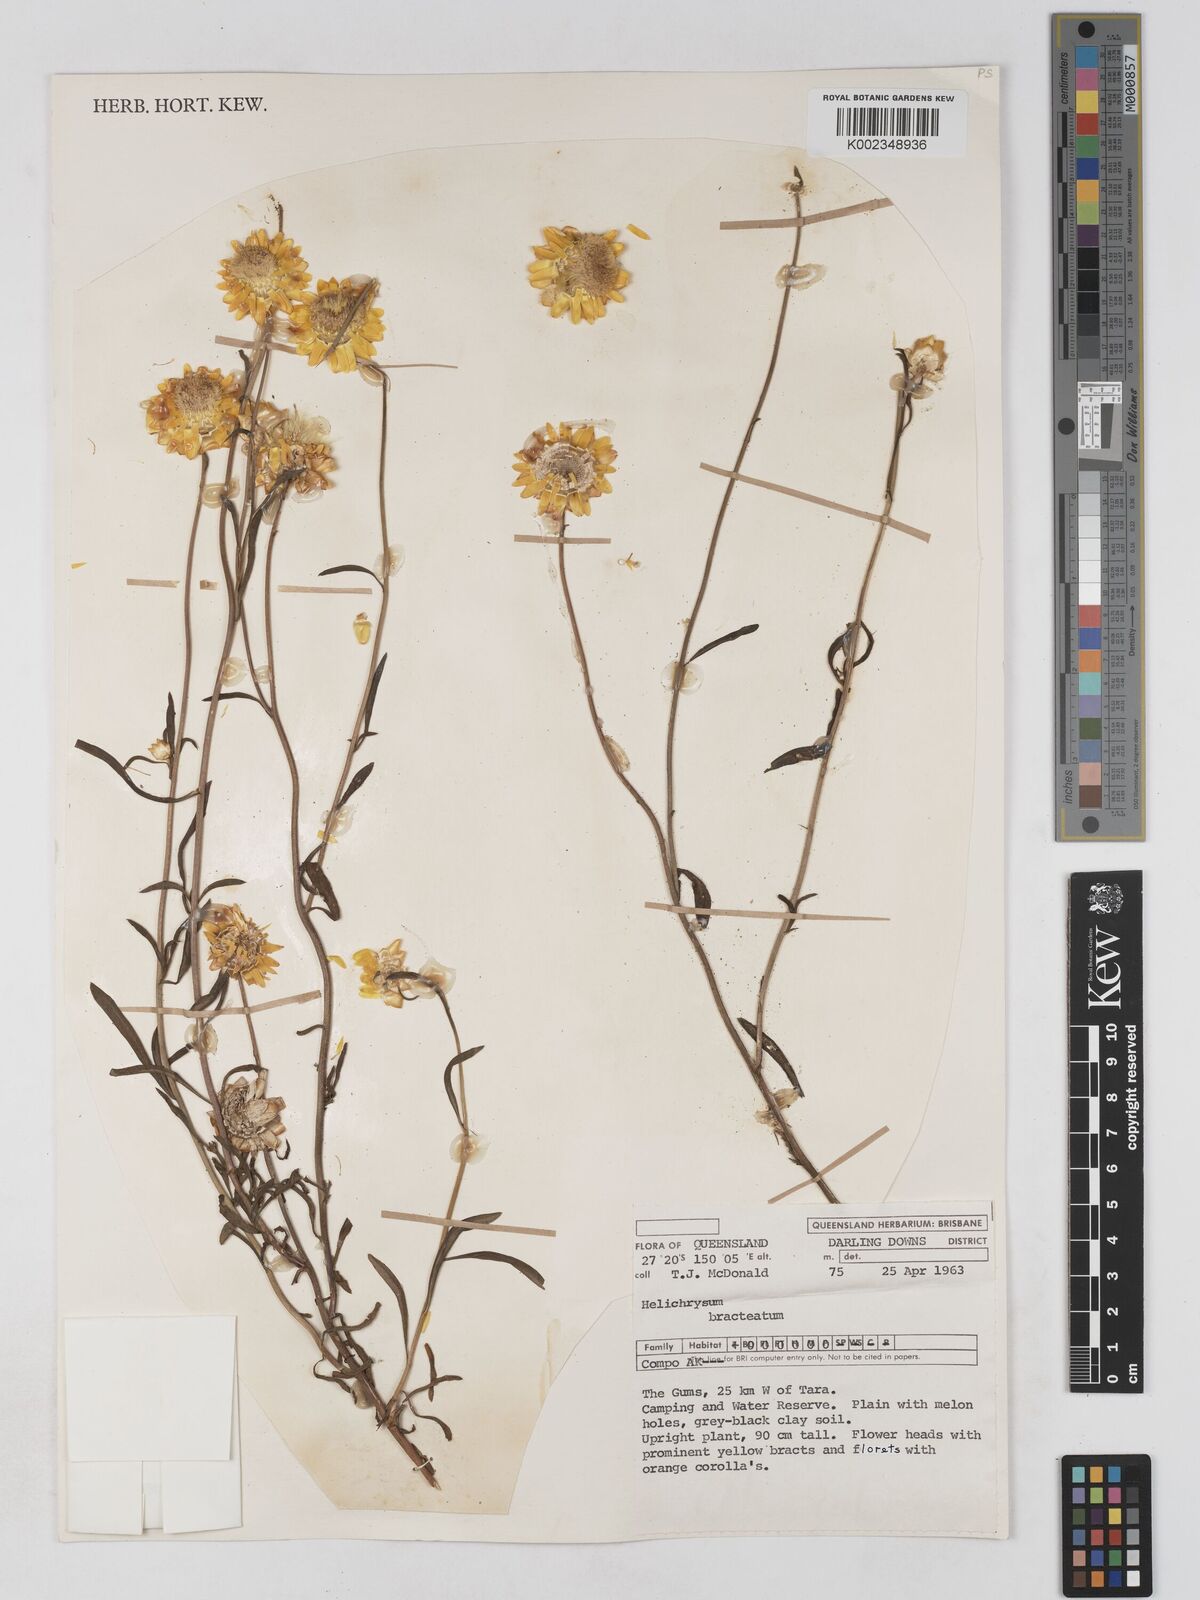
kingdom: Plantae
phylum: Tracheophyta
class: Magnoliopsida
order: Asterales
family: Asteraceae
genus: Xerochrysum
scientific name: Xerochrysum bracteatum
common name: Bracted strawflower
